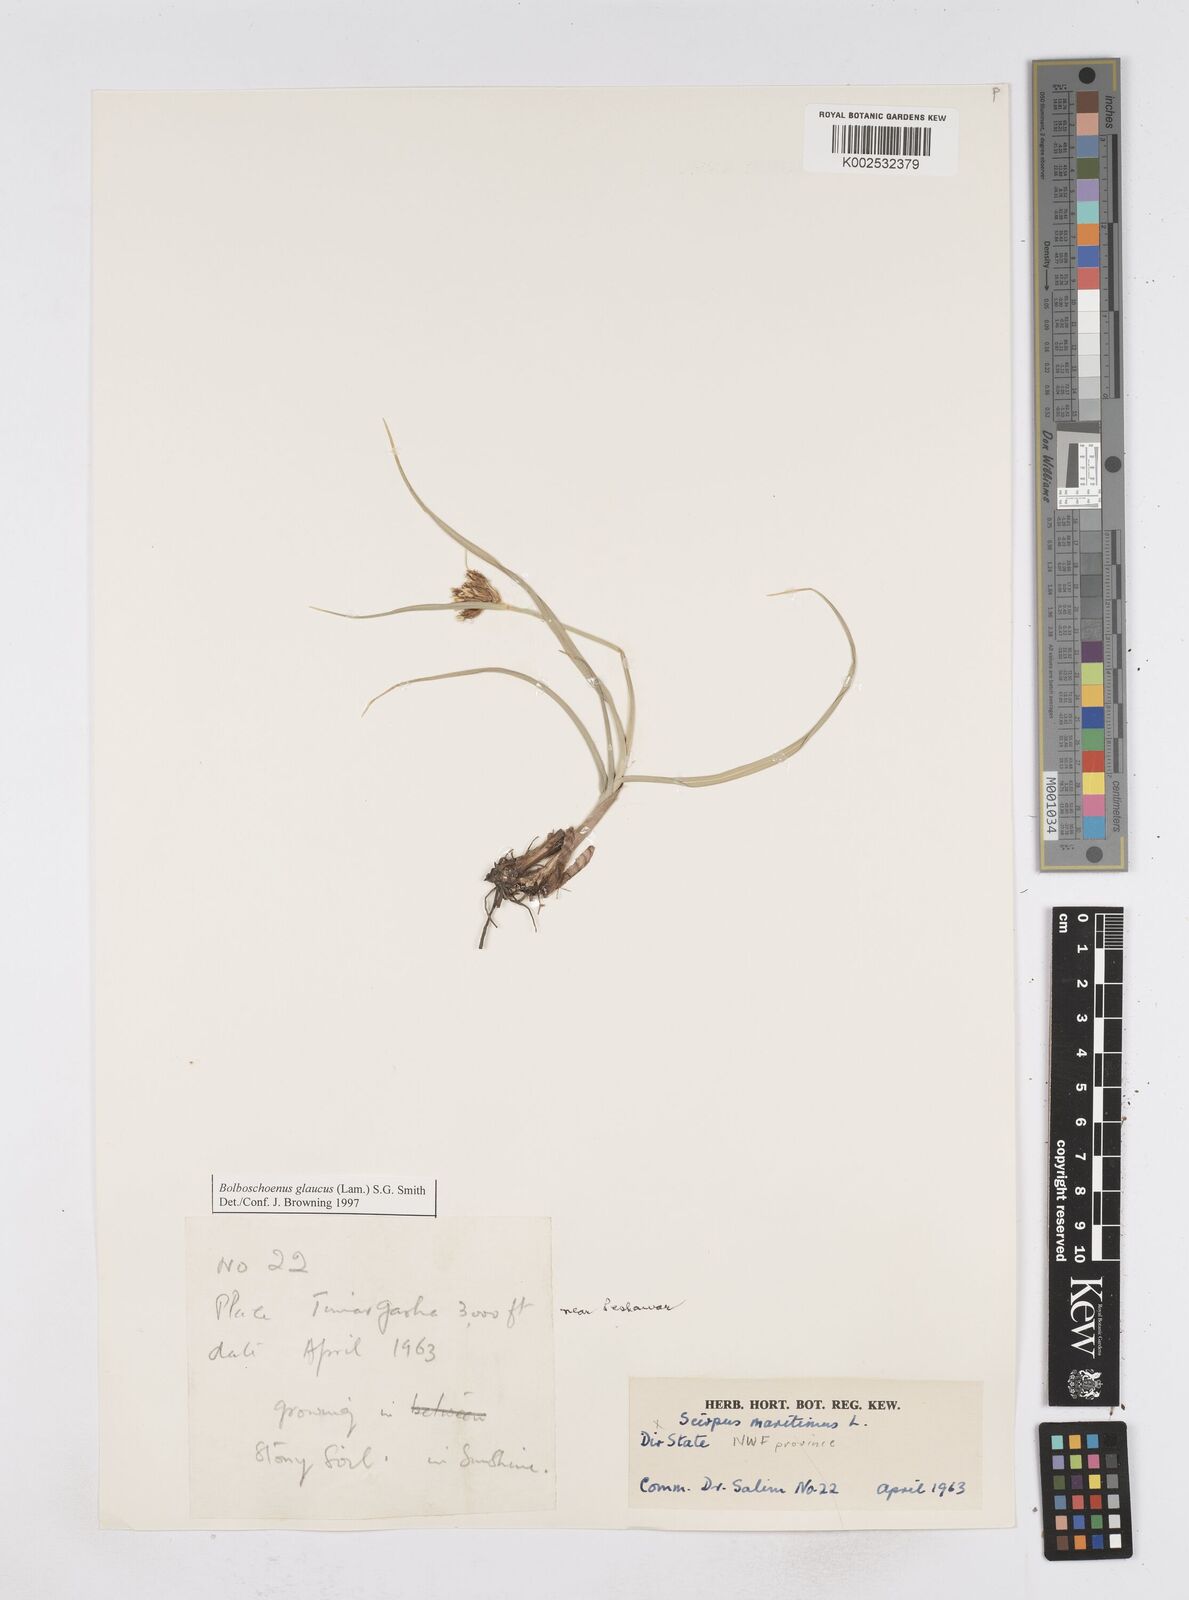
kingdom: Plantae
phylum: Tracheophyta
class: Liliopsida
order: Poales
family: Cyperaceae
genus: Bolboschoenus
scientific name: Bolboschoenus maritimus
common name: Sea club-rush
